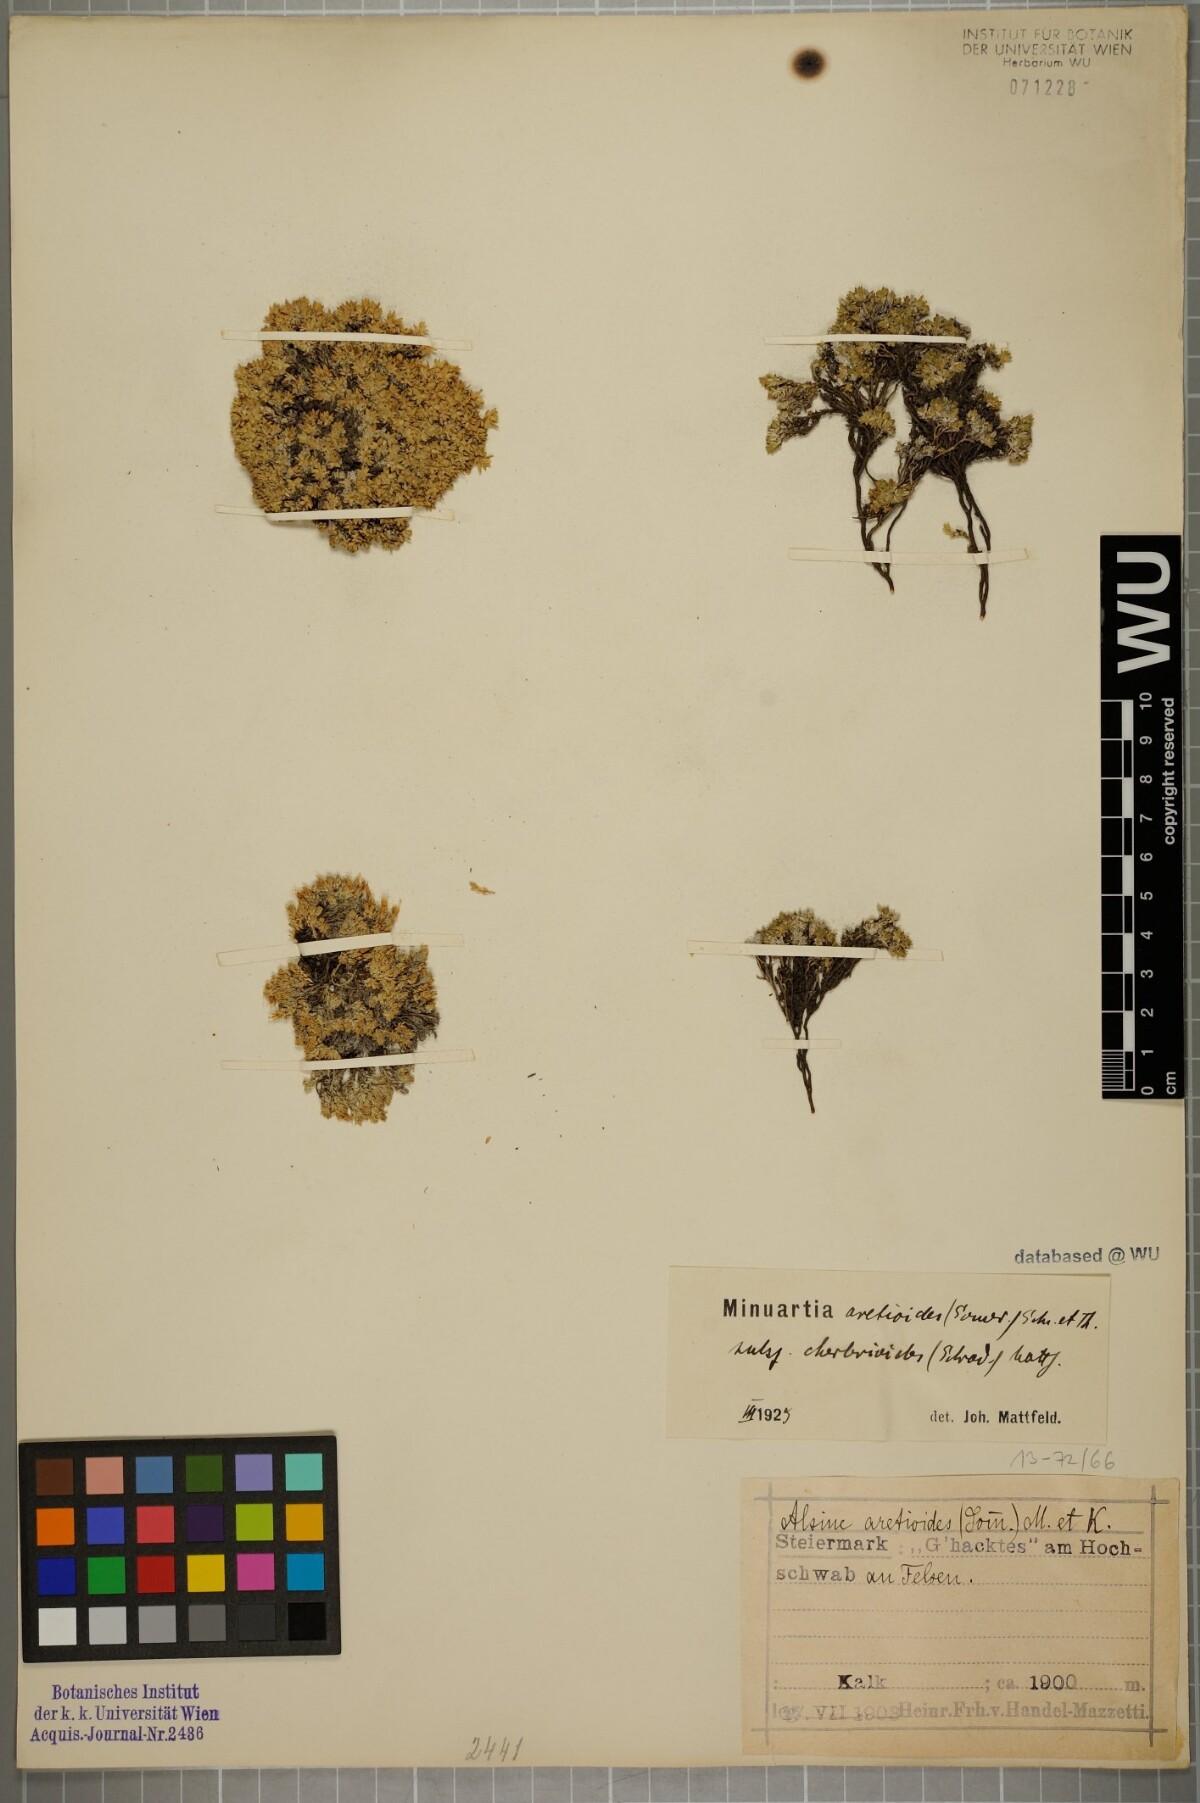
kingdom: Plantae
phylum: Tracheophyta
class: Magnoliopsida
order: Caryophyllales
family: Caryophyllaceae
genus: Facchinia
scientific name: Facchinia cherlerioides
